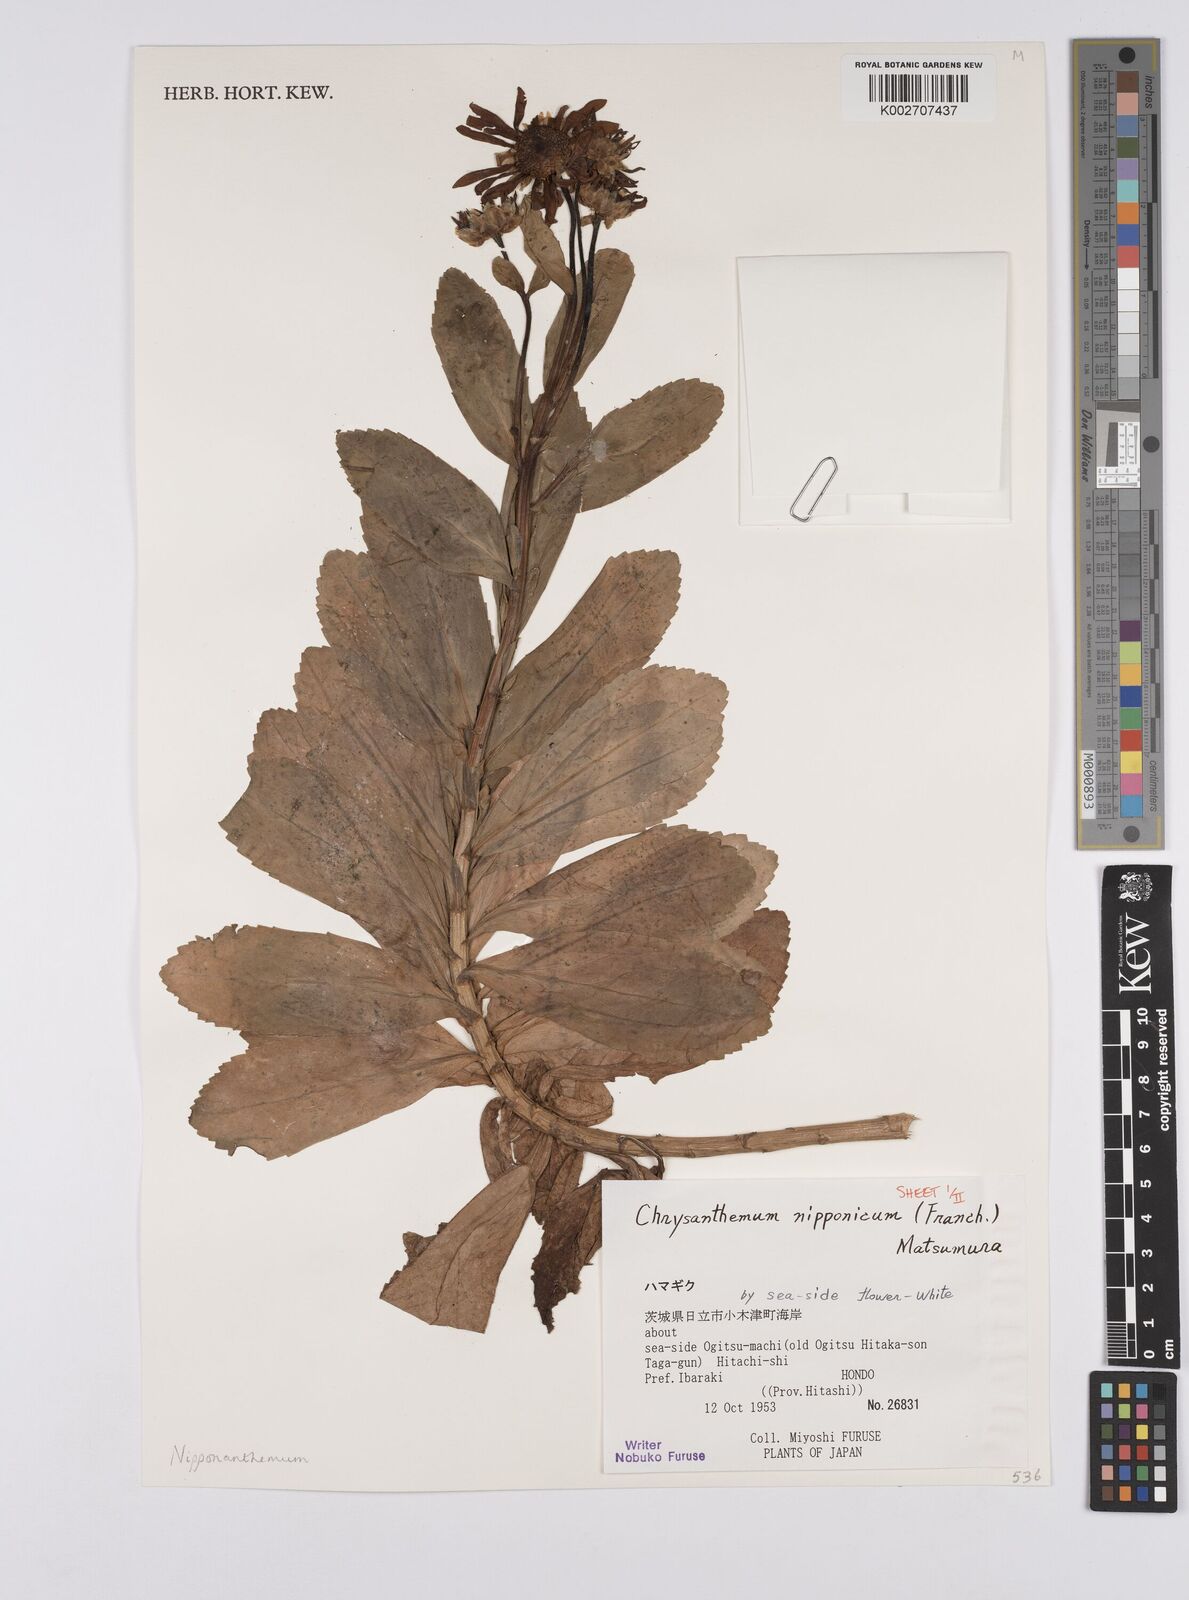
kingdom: Plantae
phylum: Tracheophyta
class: Magnoliopsida
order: Asterales
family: Asteraceae
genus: Nipponanthemum
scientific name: Nipponanthemum nipponicum
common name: Nippon daisy
